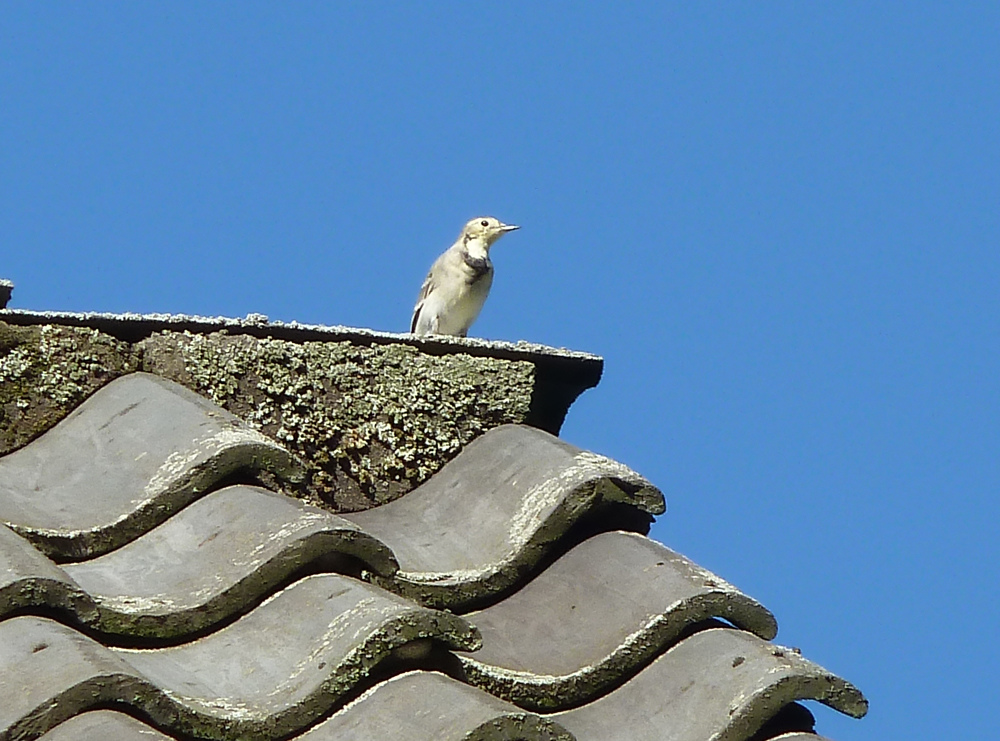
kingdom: Animalia
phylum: Chordata
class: Aves
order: Passeriformes
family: Motacillidae
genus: Motacilla
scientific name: Motacilla alba
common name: White wagtail
